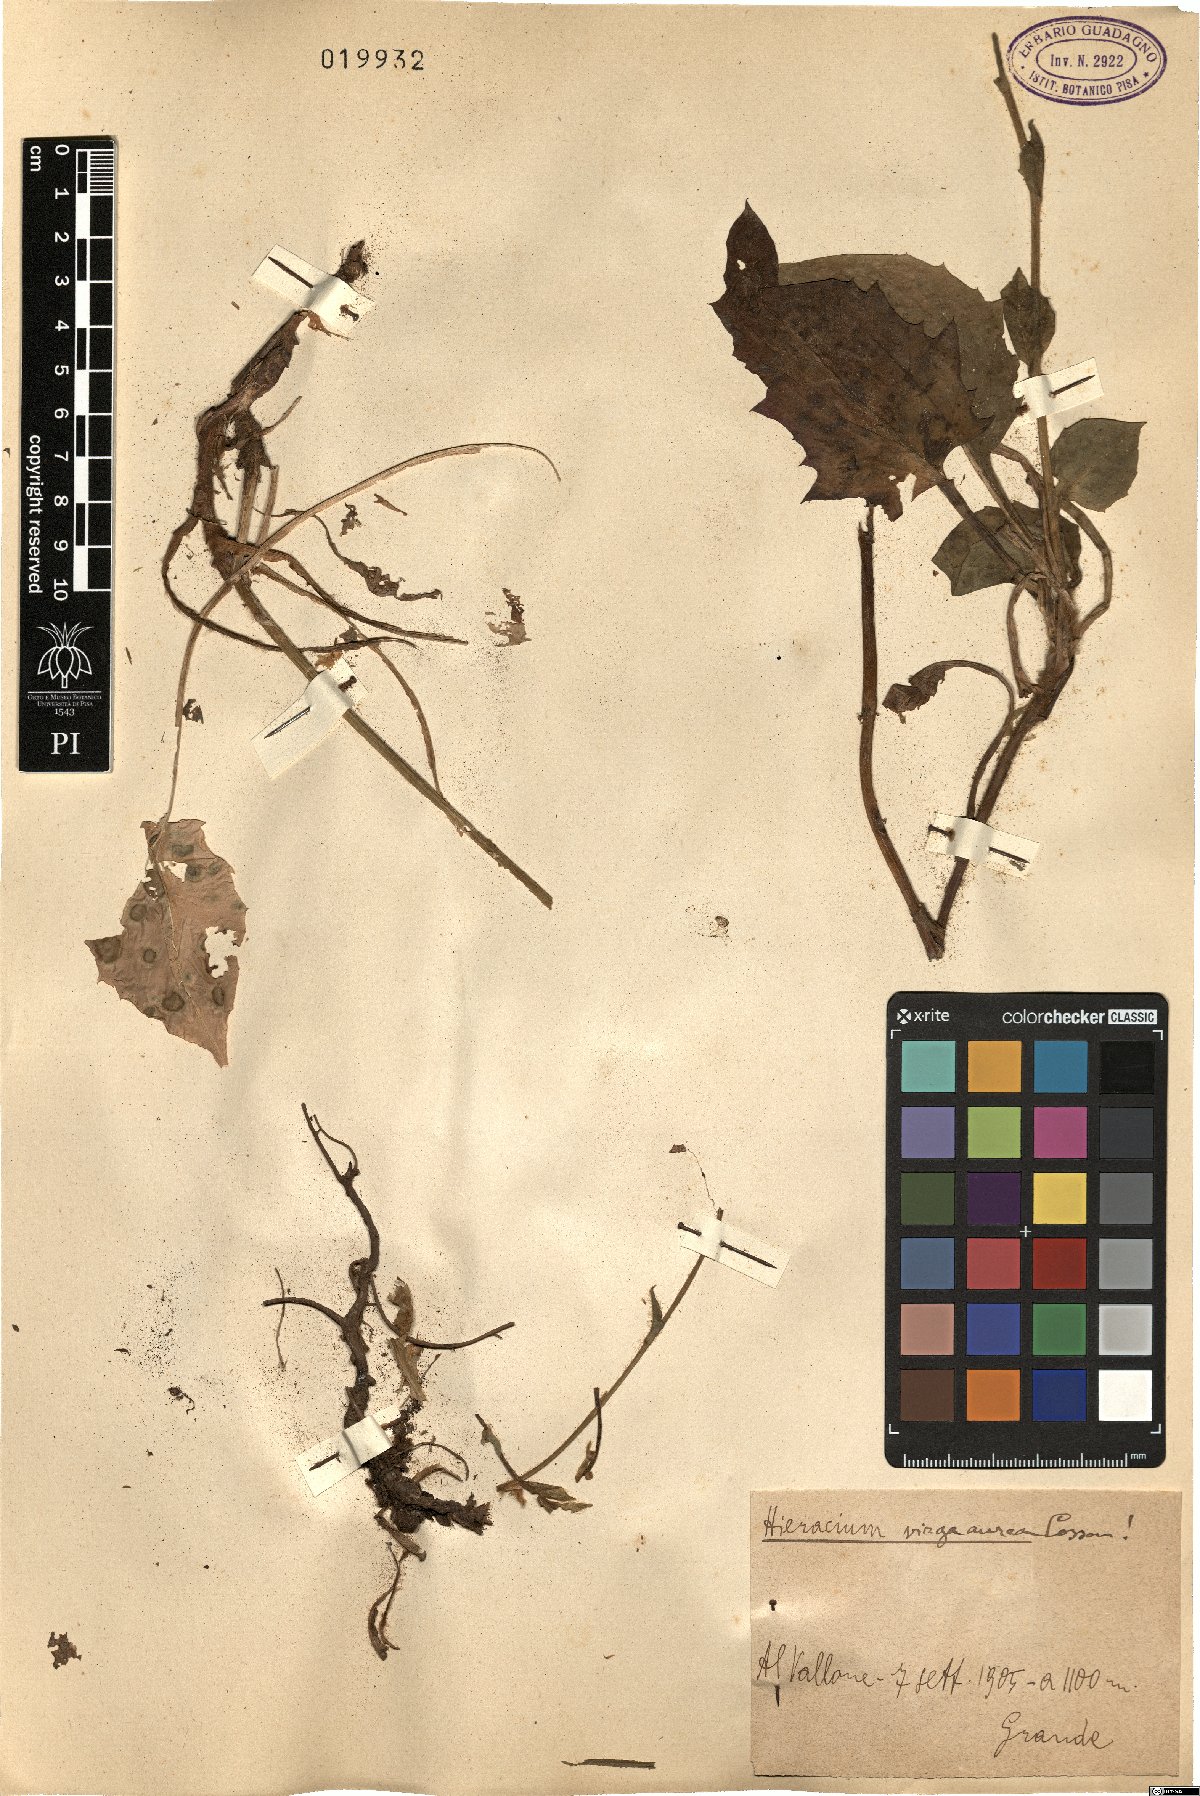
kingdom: Plantae
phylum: Tracheophyta
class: Magnoliopsida
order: Asterales
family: Asteraceae
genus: Hieracium
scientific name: Hieracium racemosum
